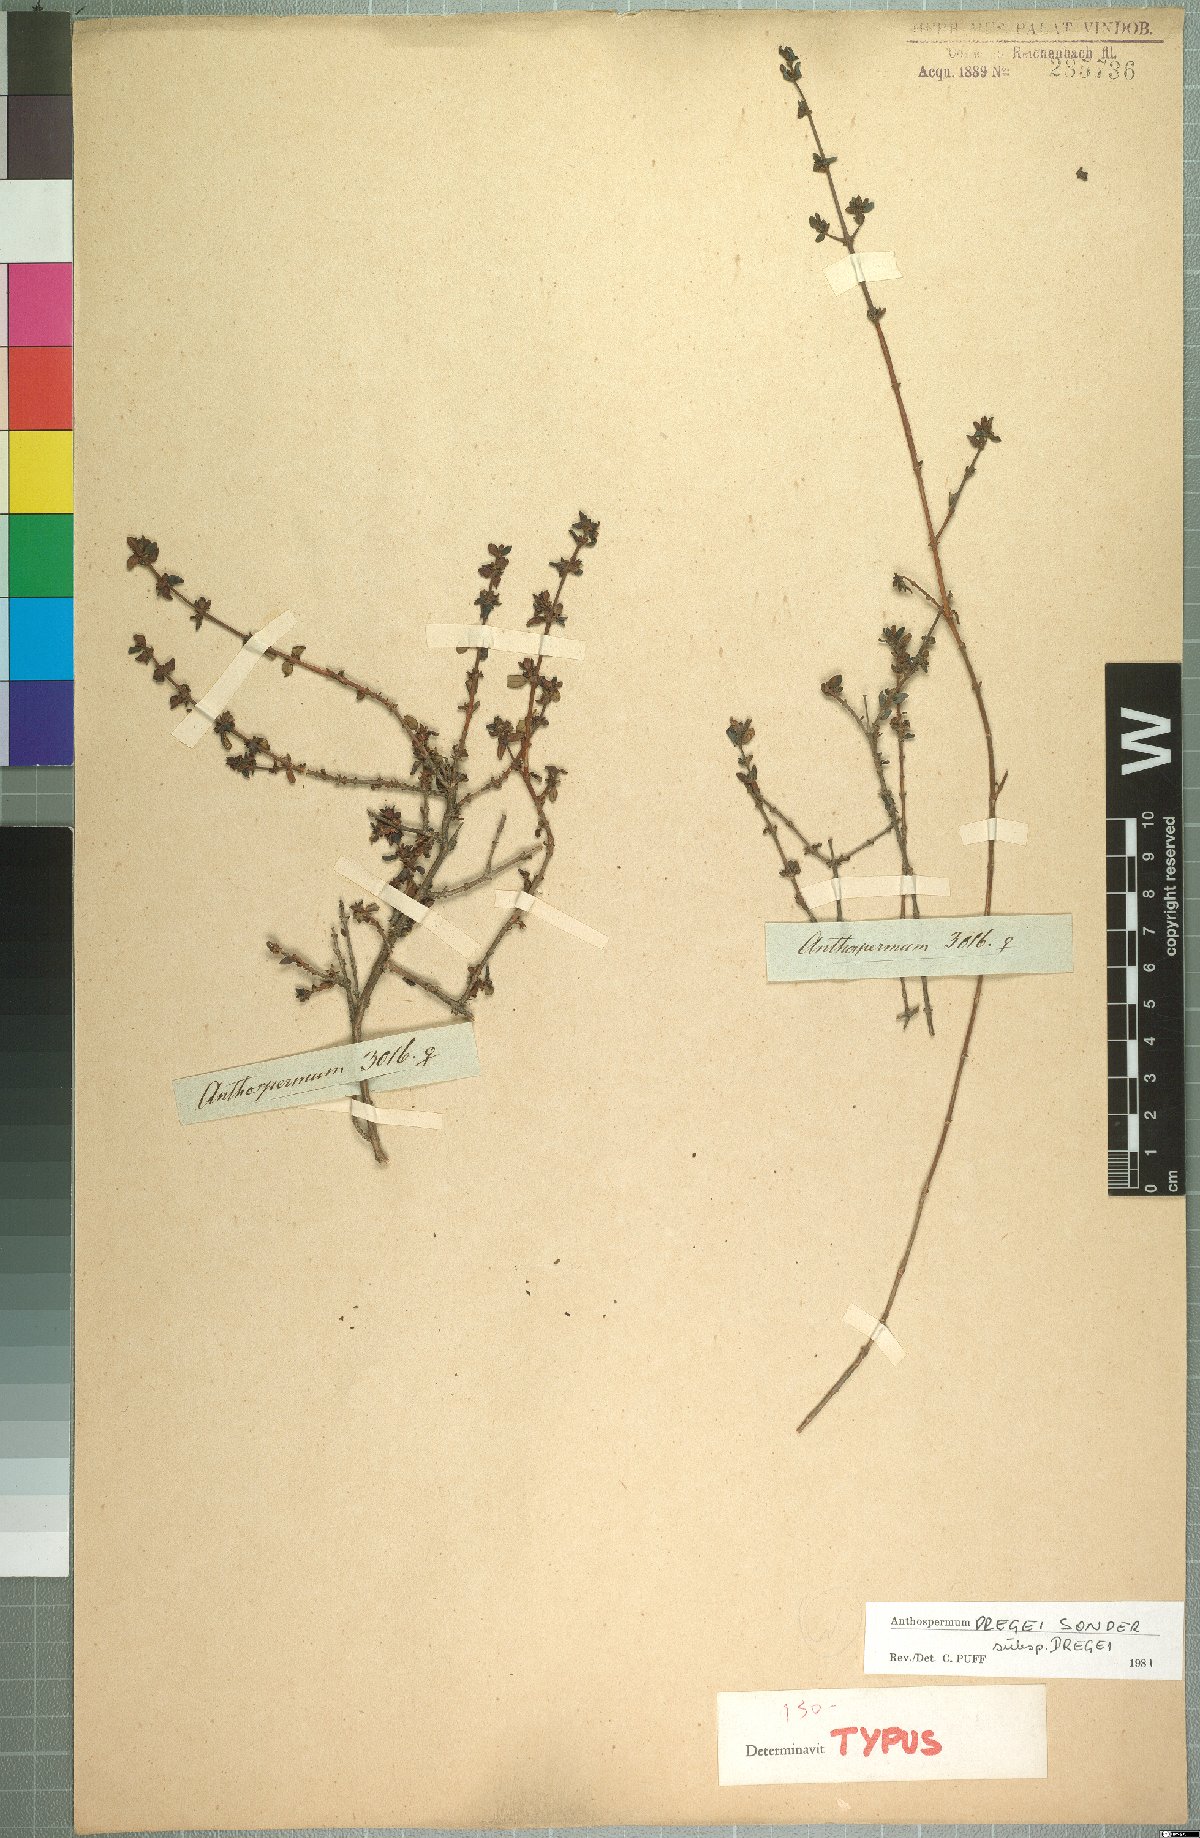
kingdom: Plantae
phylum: Tracheophyta
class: Magnoliopsida
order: Gentianales
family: Rubiaceae
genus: Anthospermum
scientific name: Anthospermum dregei
